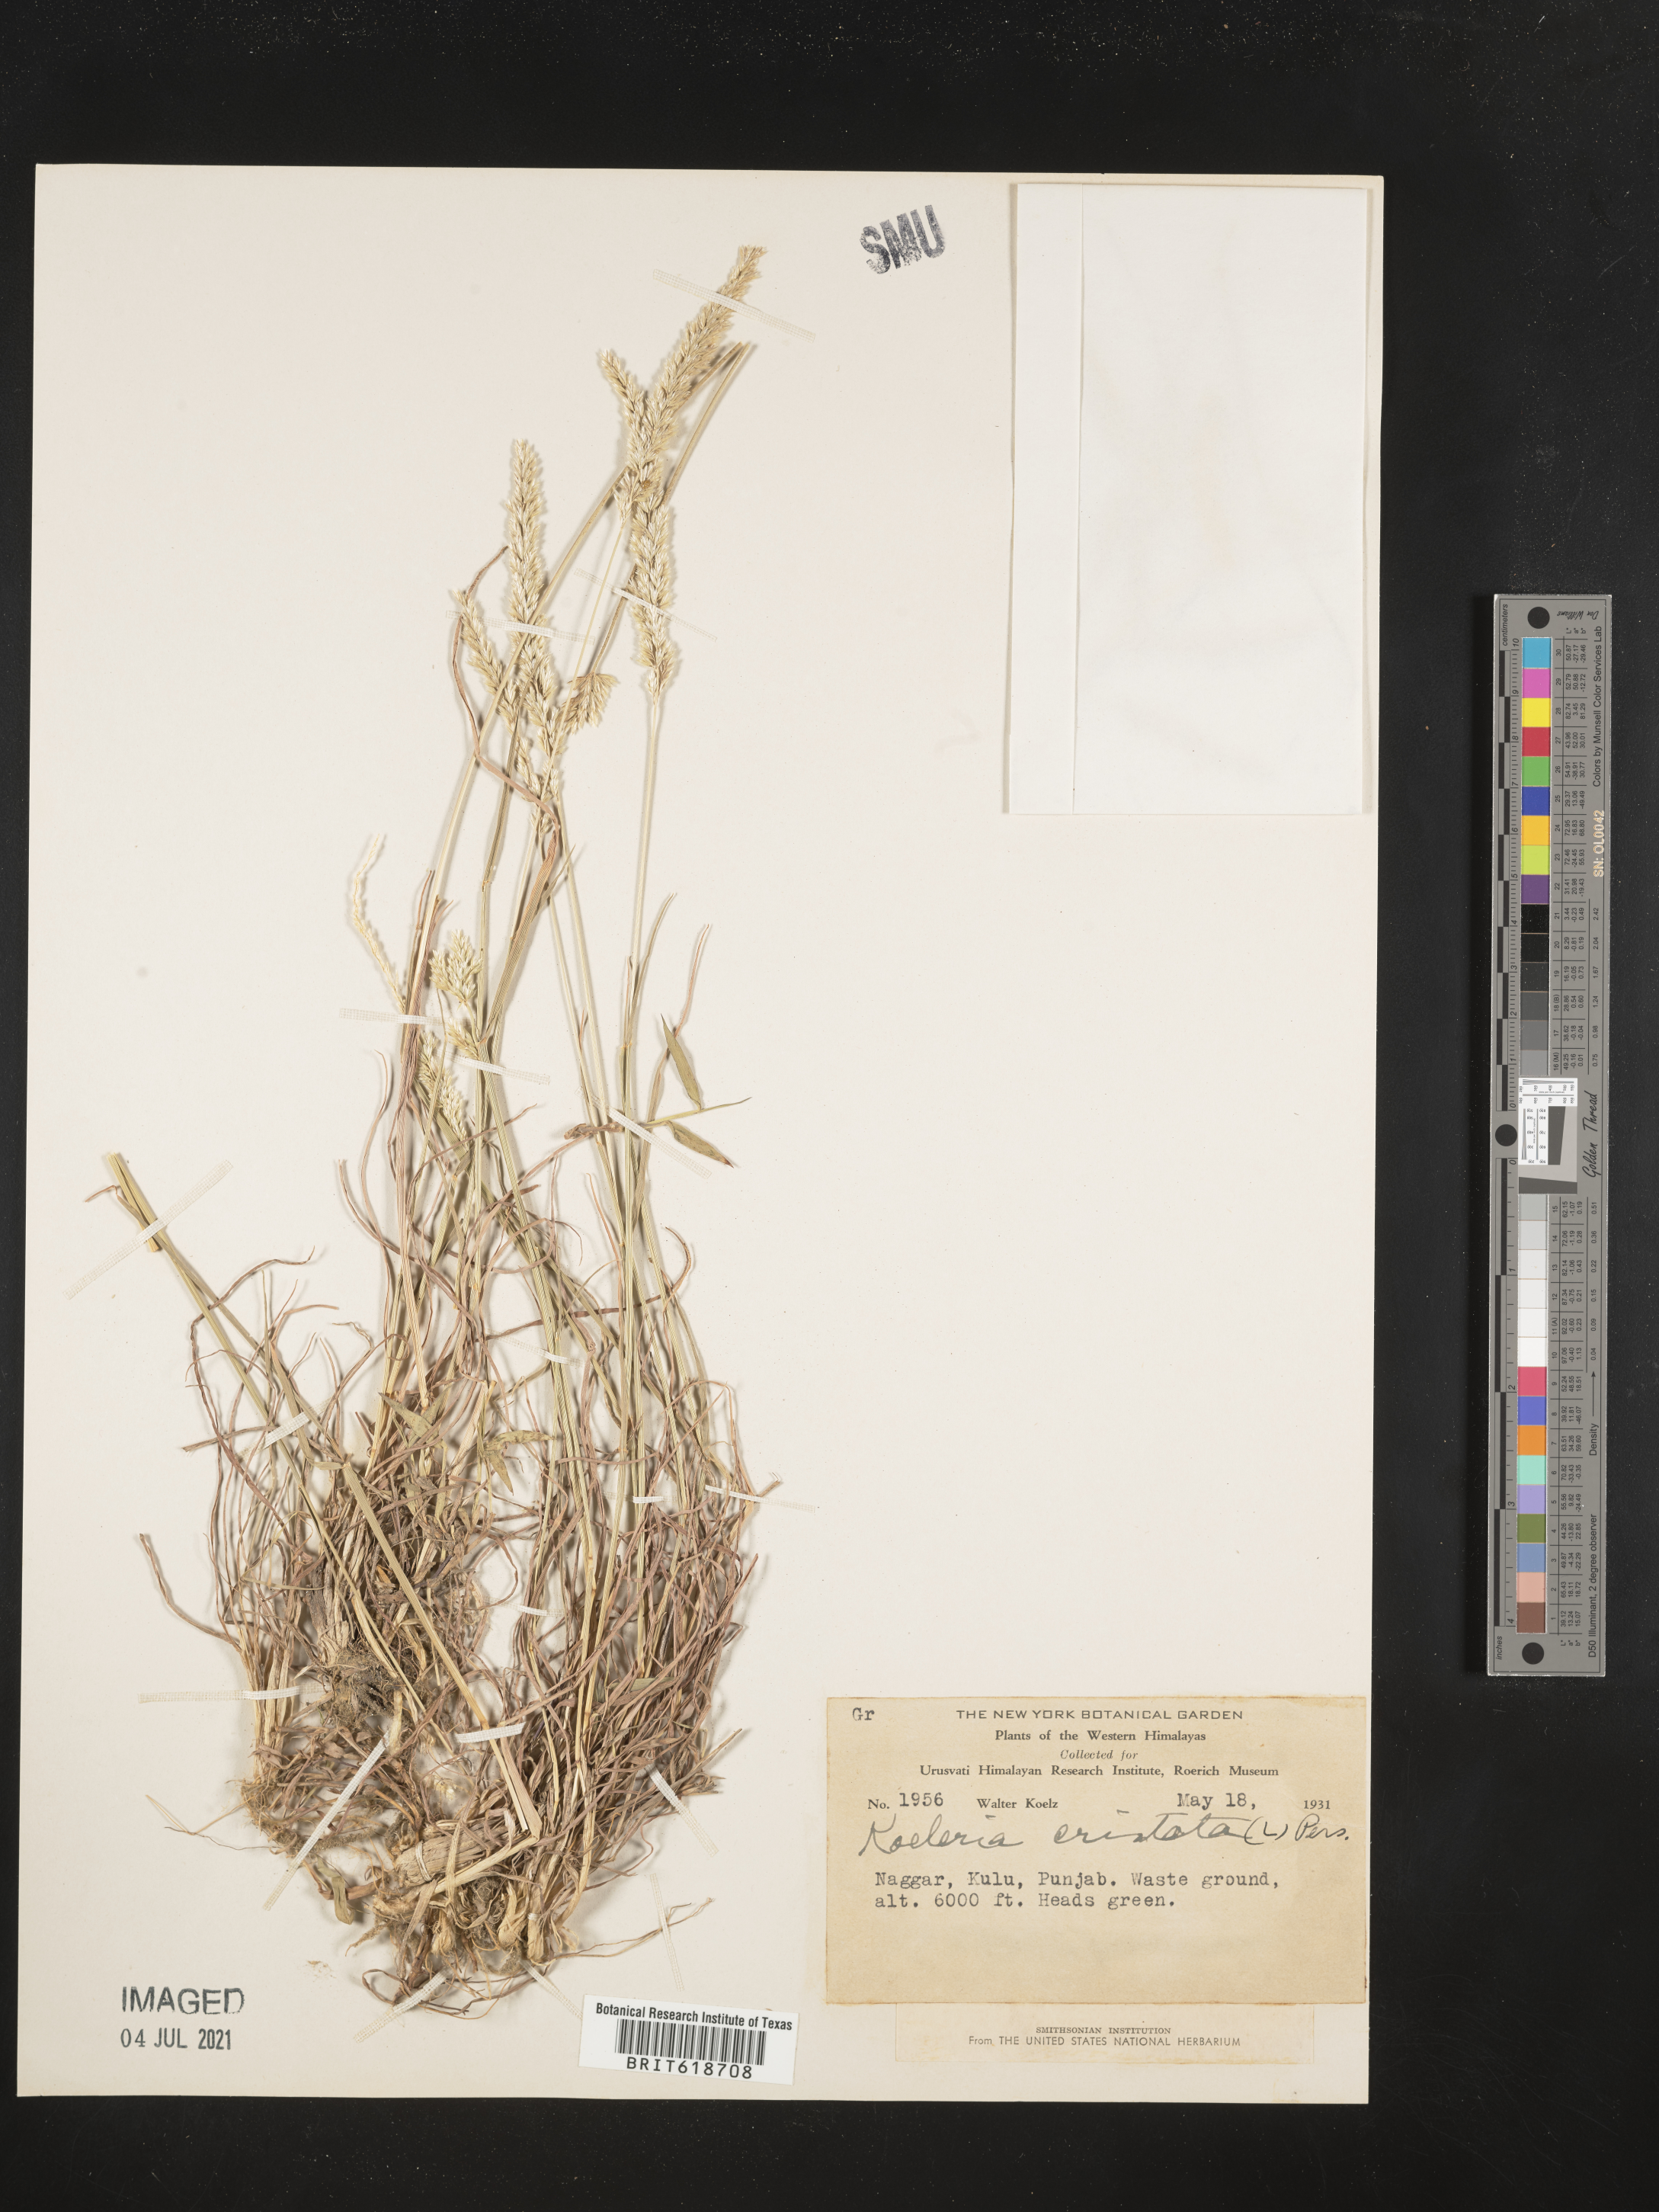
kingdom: Plantae
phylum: Tracheophyta
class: Liliopsida
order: Poales
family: Poaceae
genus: Koeleria
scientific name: Koeleria cristata
